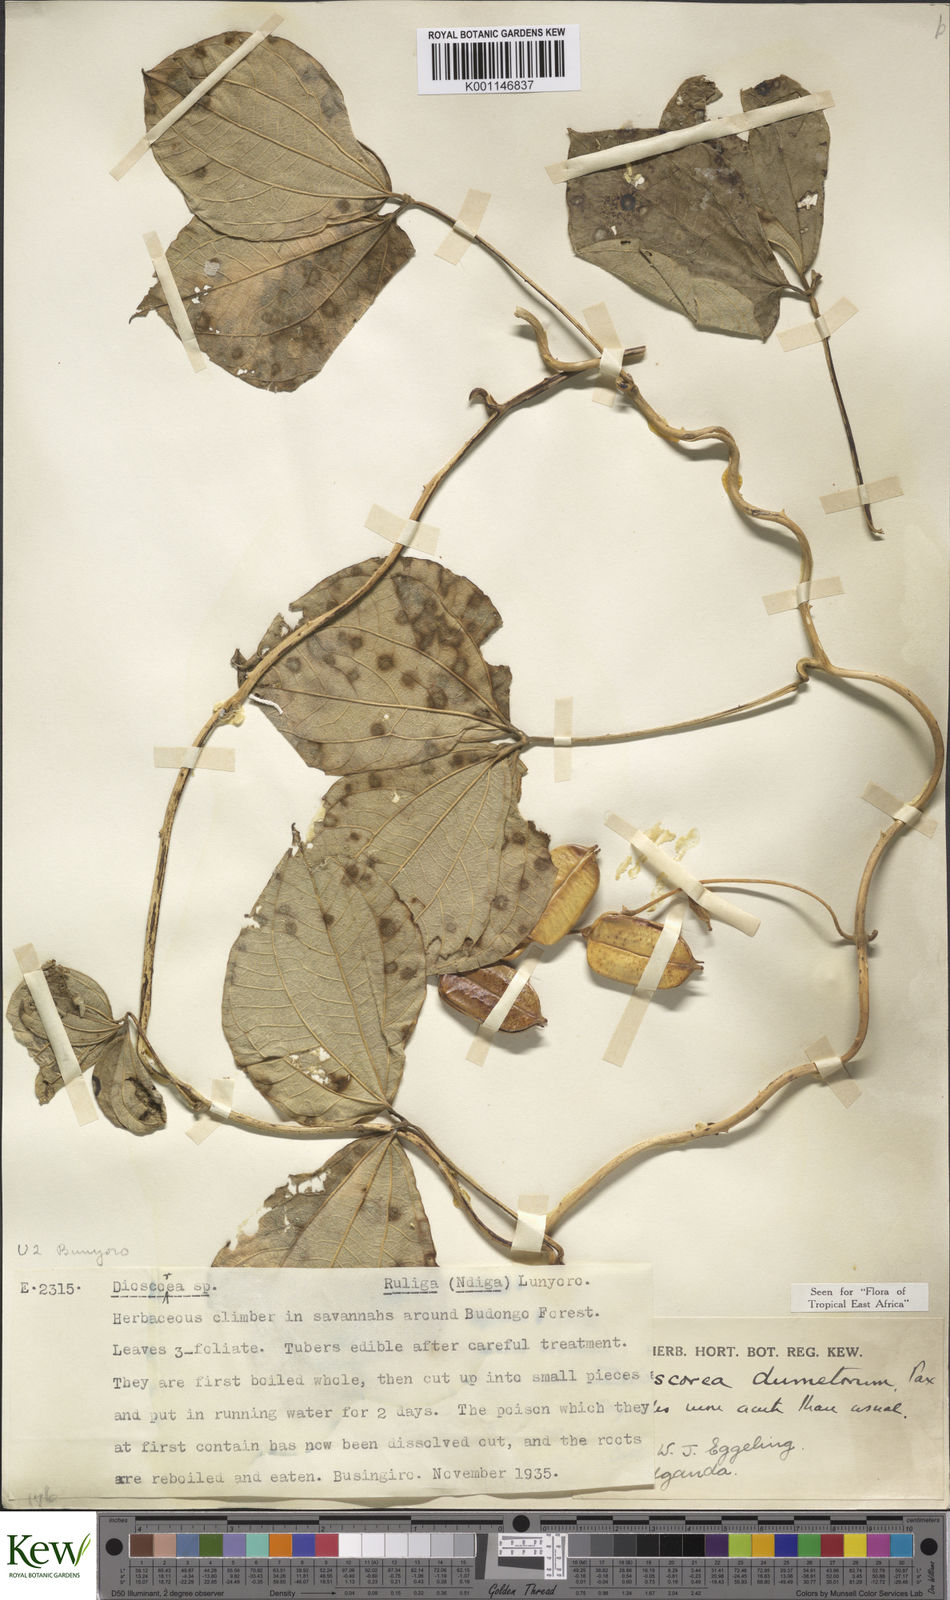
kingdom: Plantae
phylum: Tracheophyta
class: Liliopsida
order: Dioscoreales
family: Dioscoreaceae
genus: Dioscorea
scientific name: Dioscorea dumetorum
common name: African bitter yam
